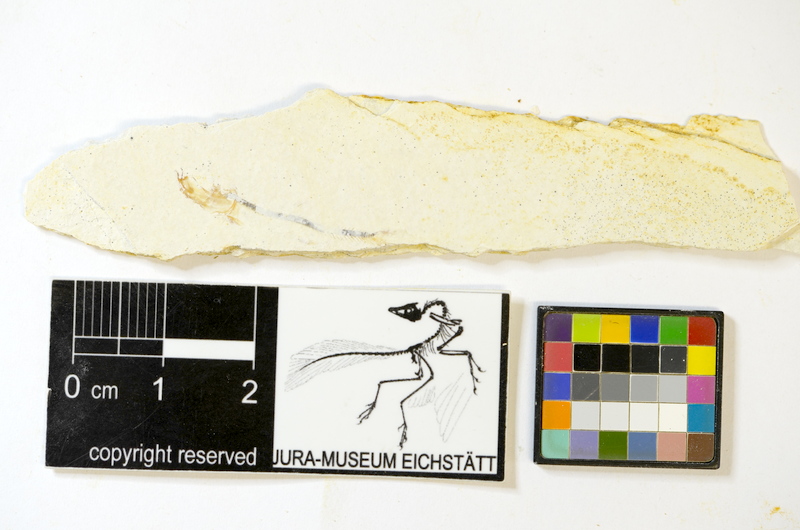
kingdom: Animalia
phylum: Chordata
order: Salmoniformes
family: Orthogonikleithridae
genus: Orthogonikleithrus
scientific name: Orthogonikleithrus hoelli
